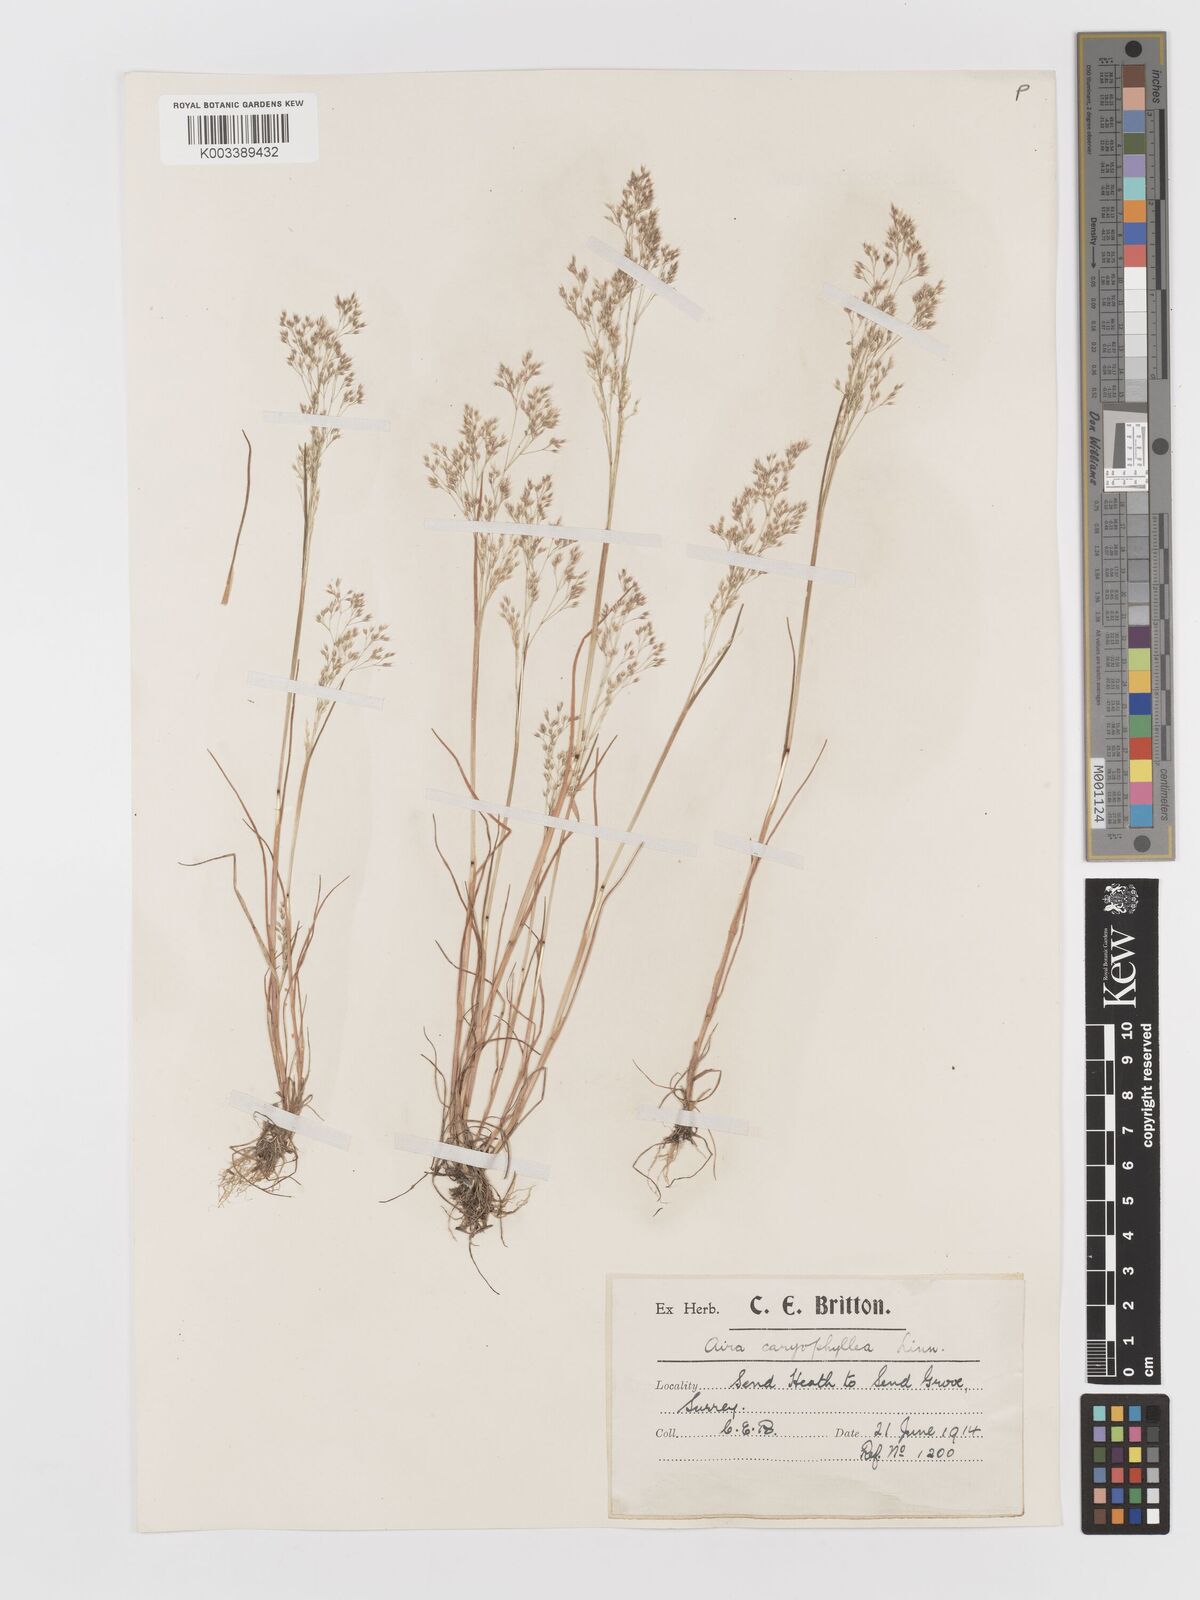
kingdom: Plantae
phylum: Tracheophyta
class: Liliopsida
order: Poales
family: Poaceae
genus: Aira
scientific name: Aira caryophyllea
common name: Silver hairgrass
